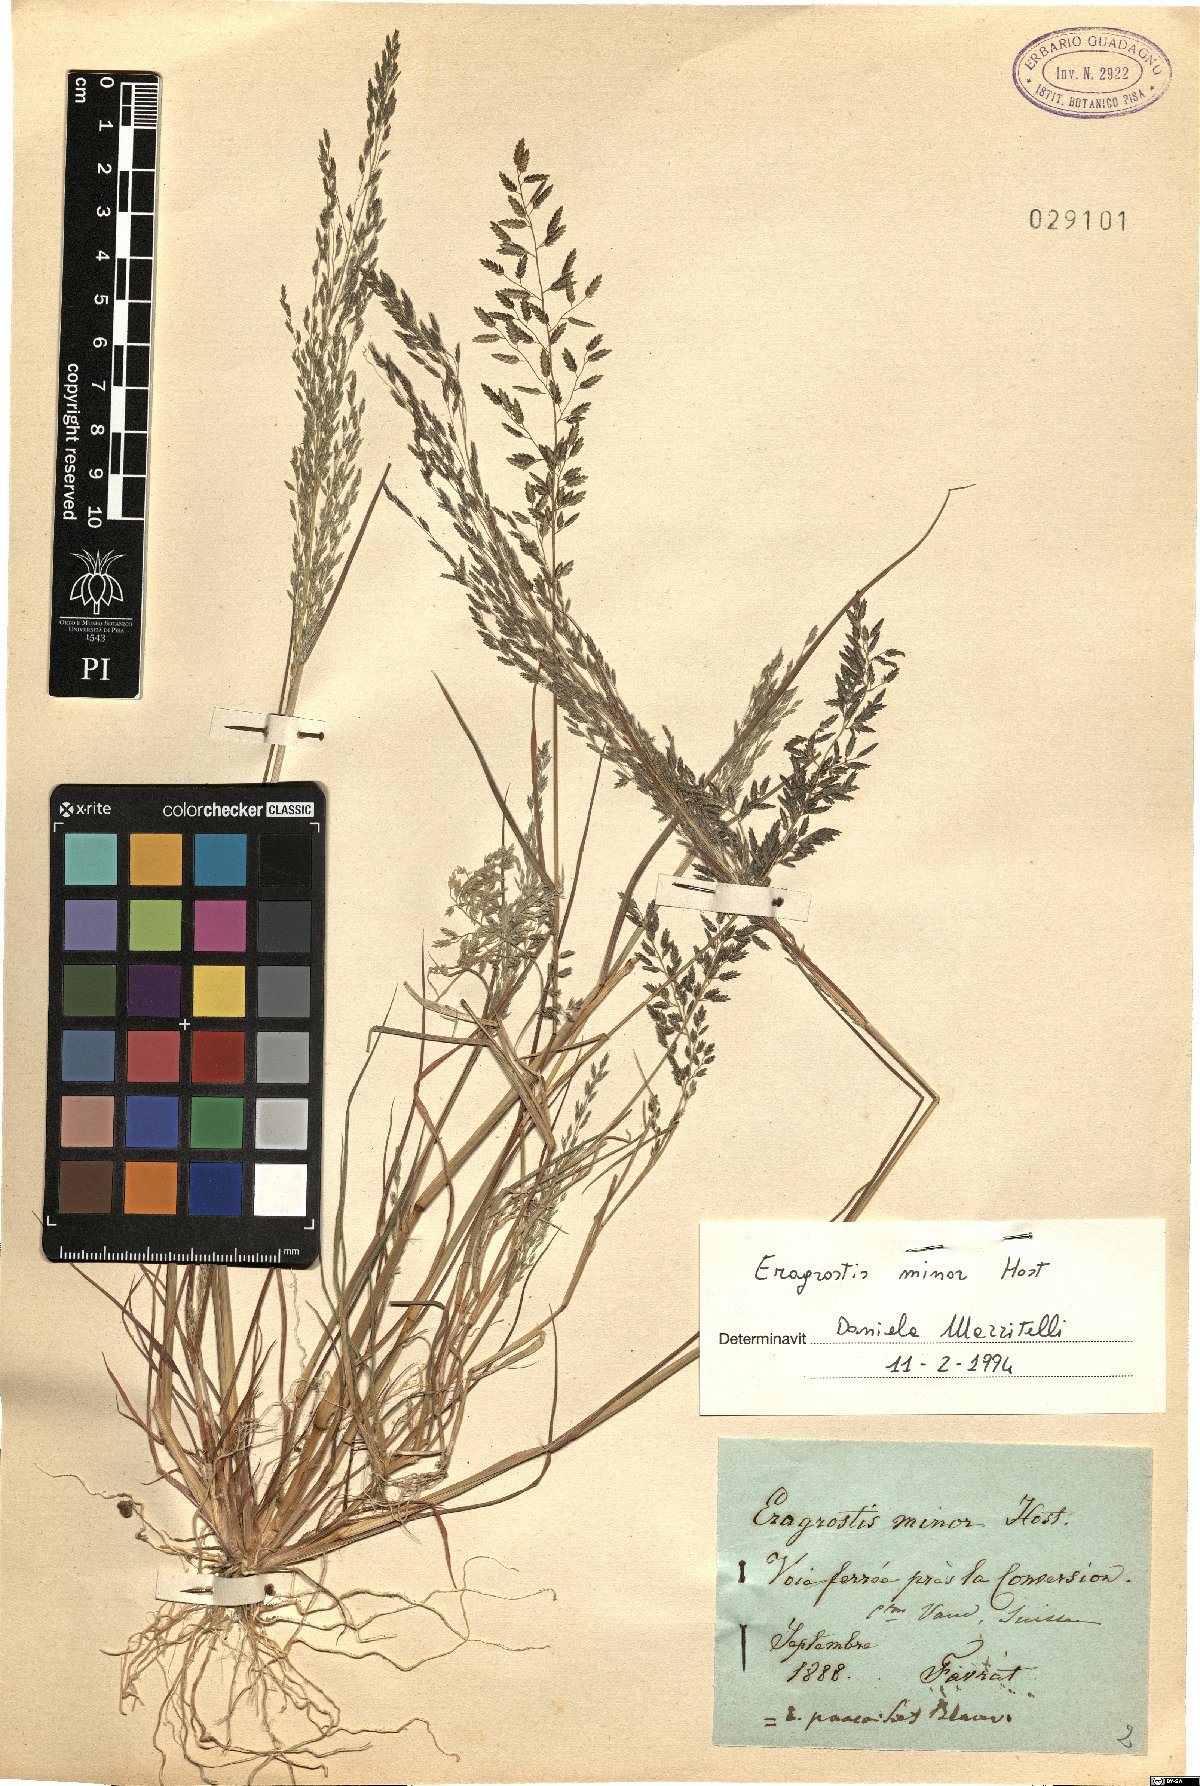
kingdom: Plantae
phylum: Tracheophyta
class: Liliopsida
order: Poales
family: Poaceae
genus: Eragrostis
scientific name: Eragrostis minor
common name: Small love-grass
